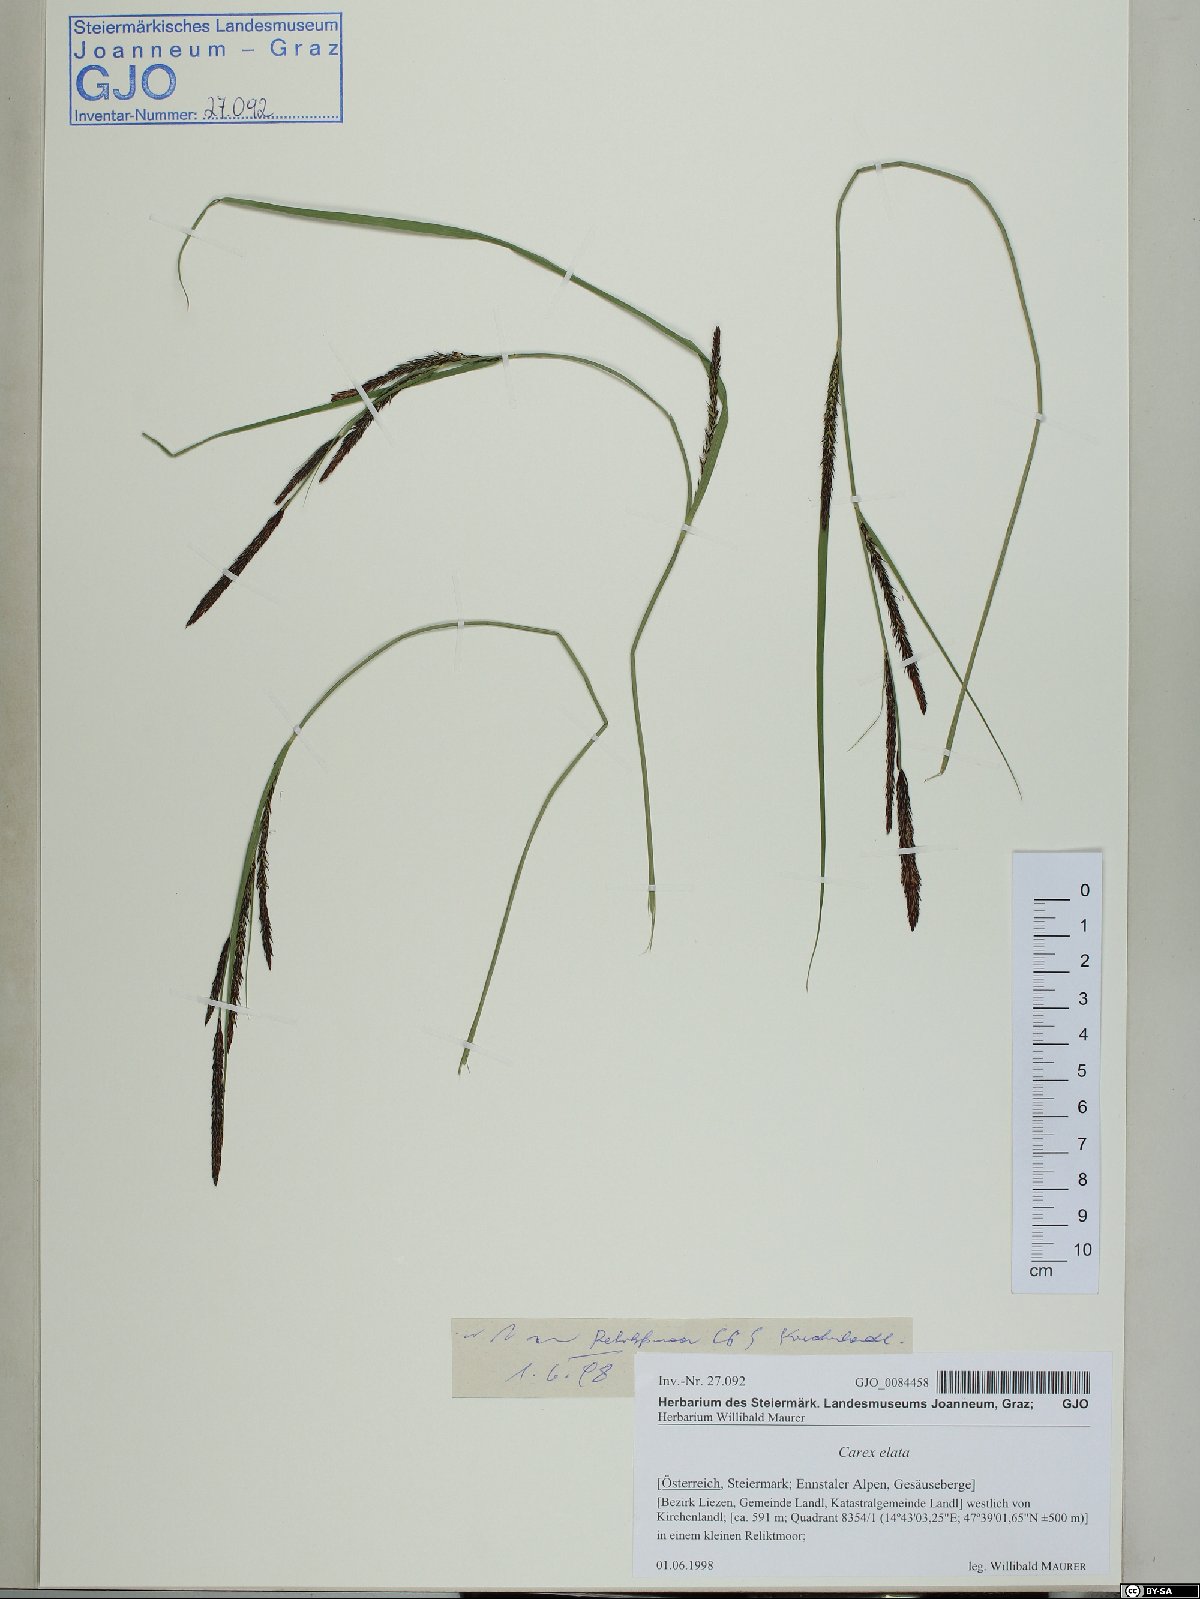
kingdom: Plantae
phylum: Tracheophyta
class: Liliopsida
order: Poales
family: Cyperaceae
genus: Carex
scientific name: Carex elata
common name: Tufted sedge
